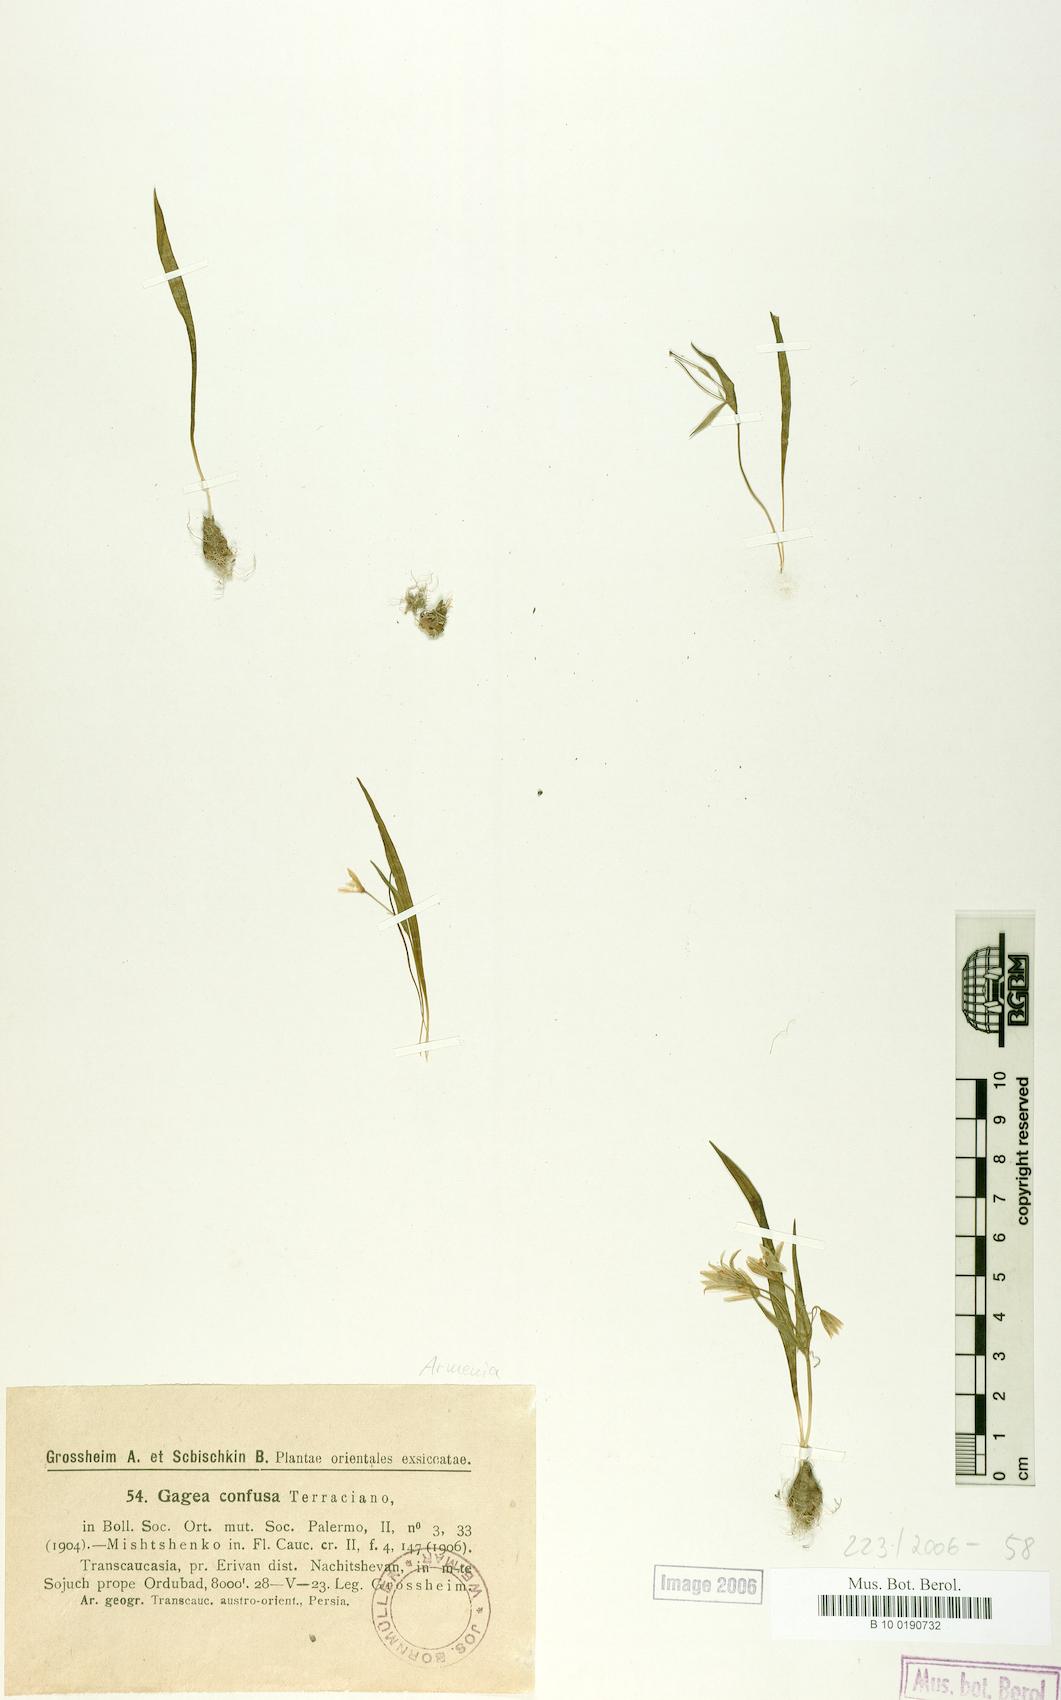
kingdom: Plantae
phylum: Tracheophyta
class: Liliopsida
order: Liliales
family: Liliaceae
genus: Gagea
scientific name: Gagea confusa
